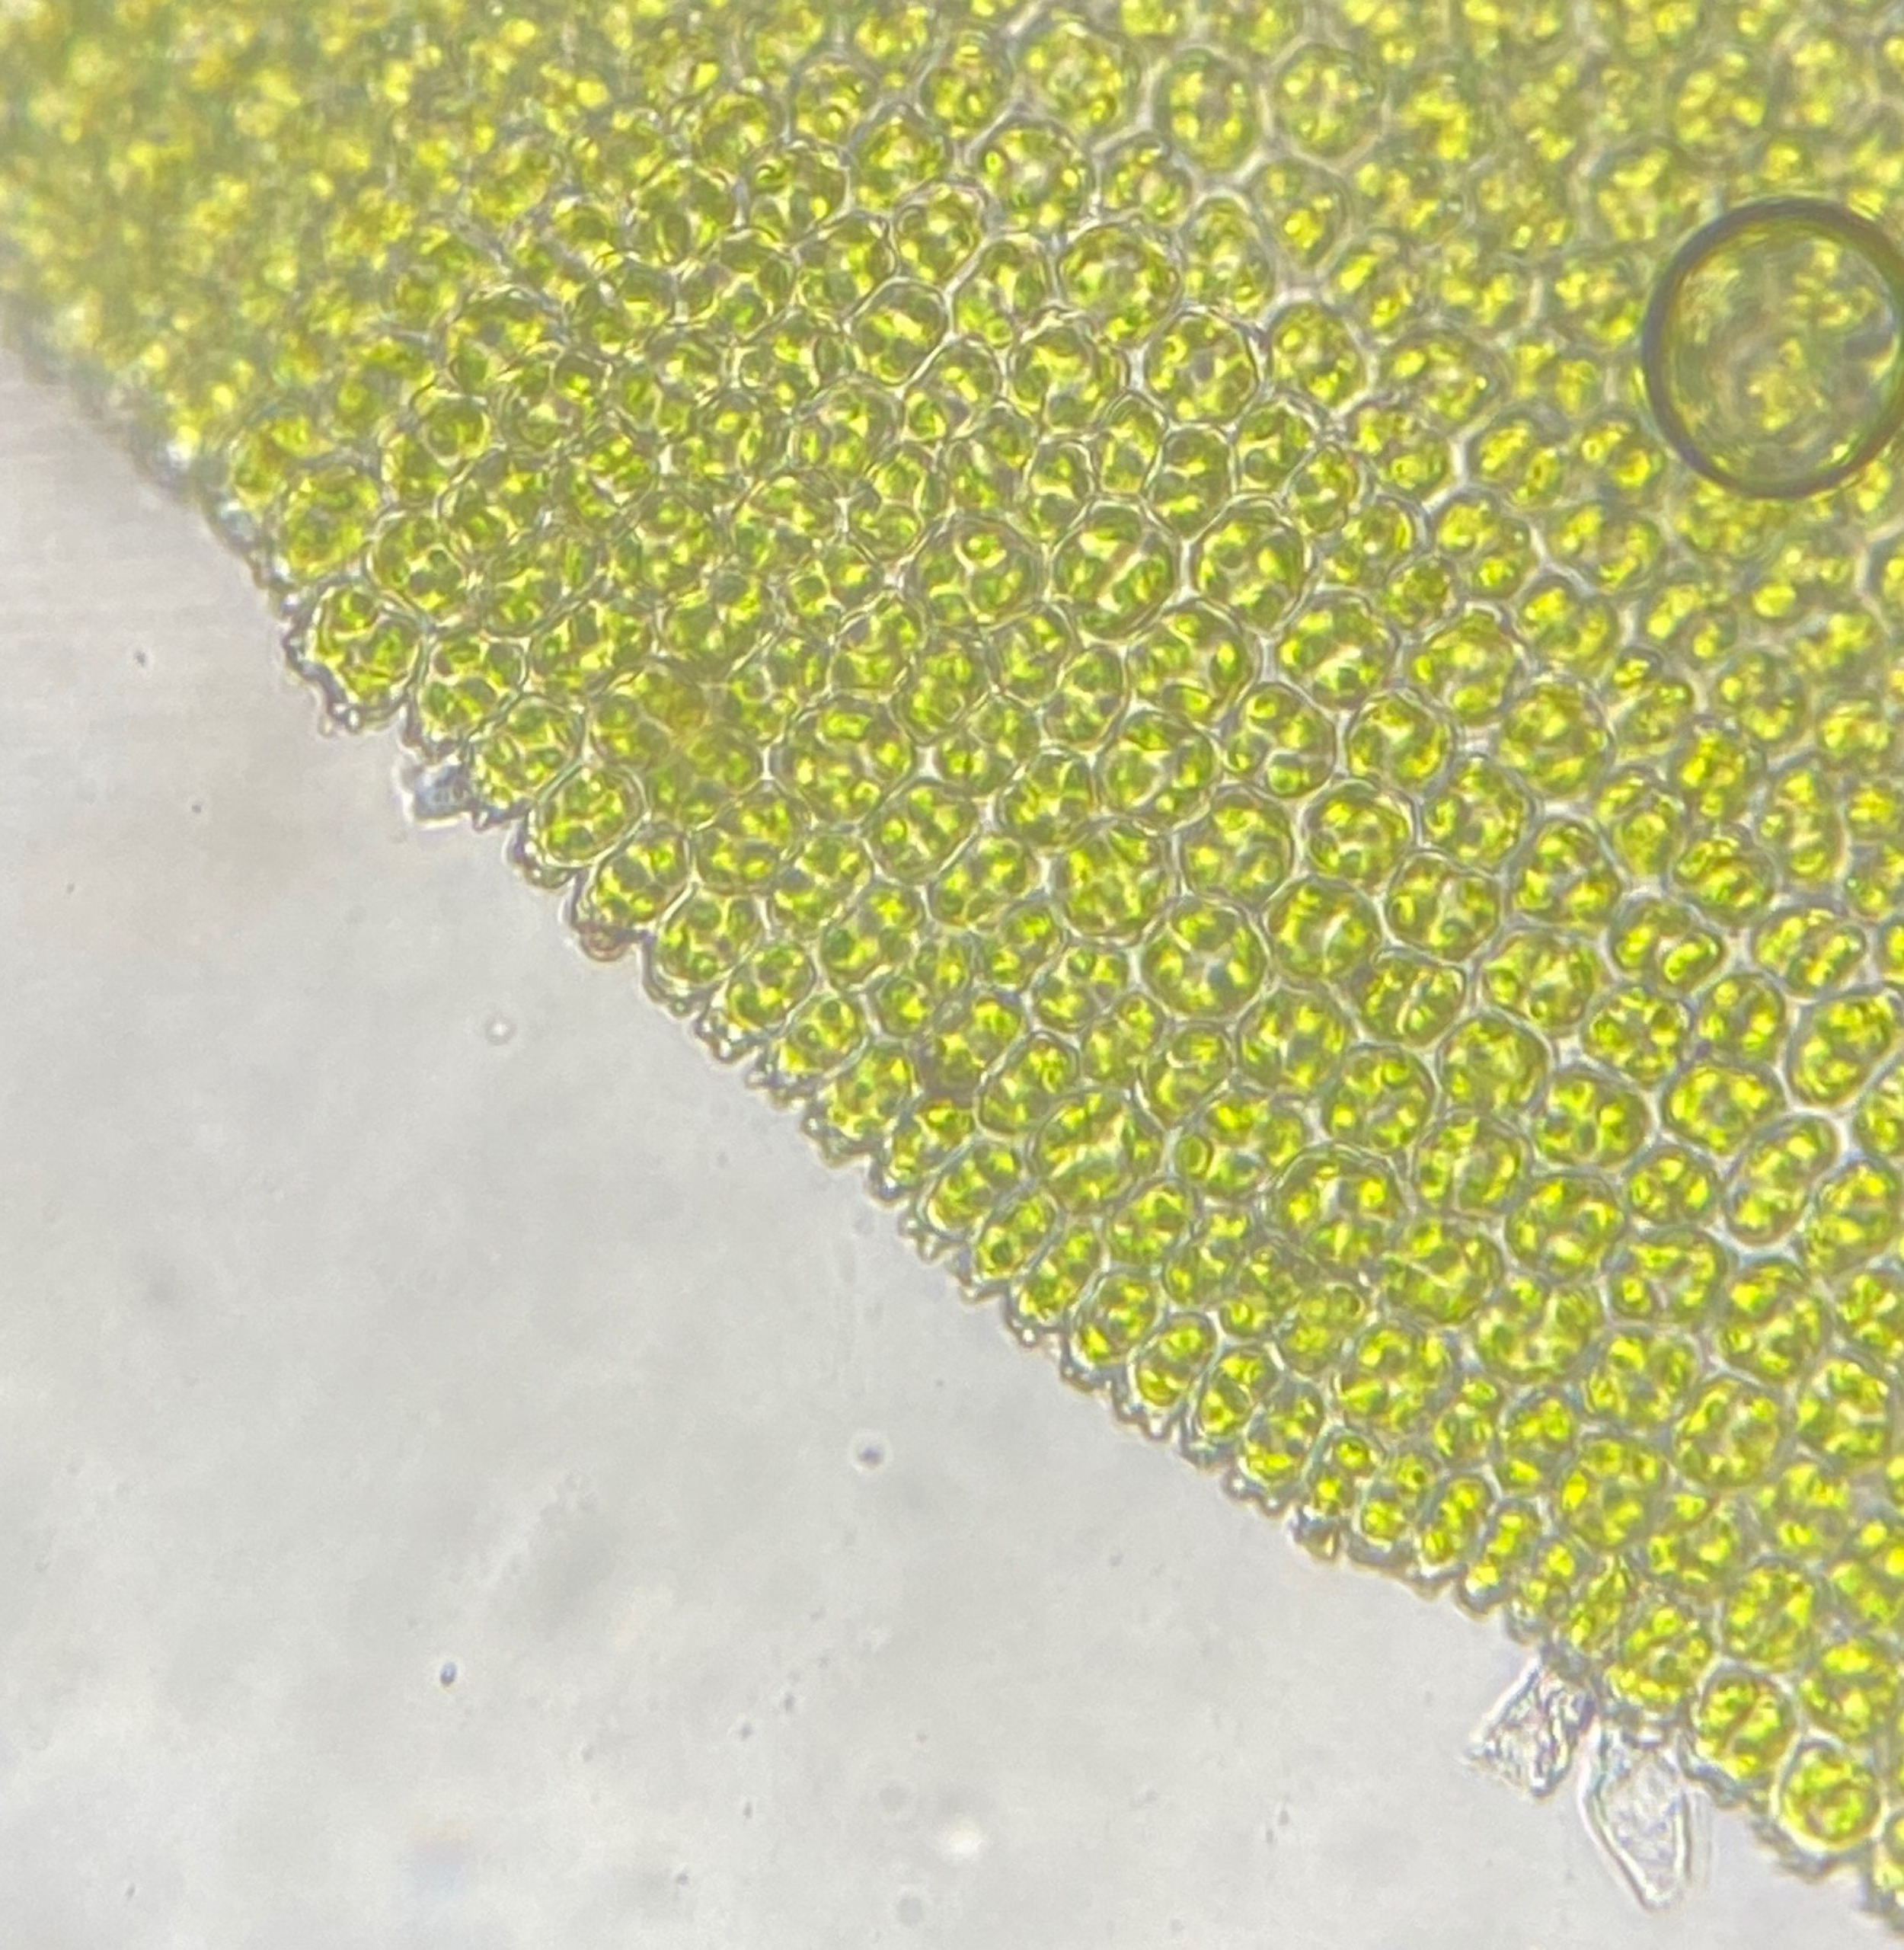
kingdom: Plantae
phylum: Bryophyta
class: Bryopsida
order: Hypnales
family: Anomodontaceae
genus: Anomodon
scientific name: Anomodon viticulosus
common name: Robust matblad
